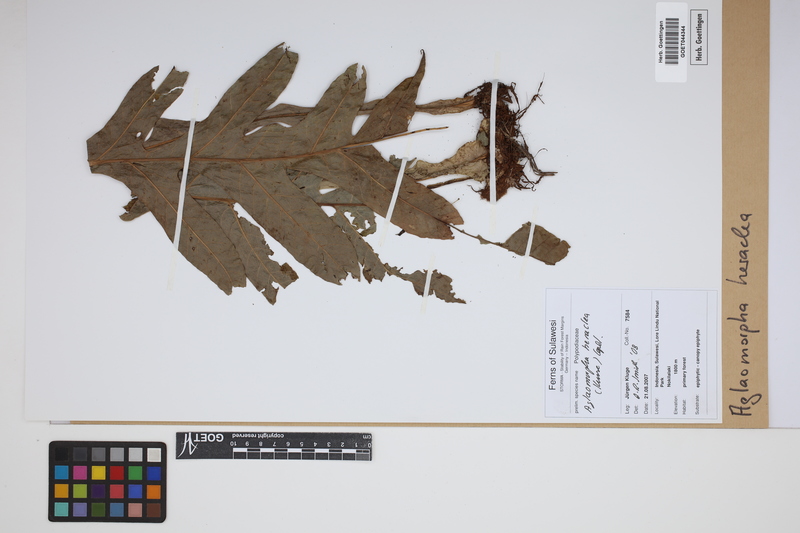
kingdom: Plantae
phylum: Tracheophyta
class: Polypodiopsida
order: Polypodiales
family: Polypodiaceae
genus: Drynaria
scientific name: Drynaria heraclea
